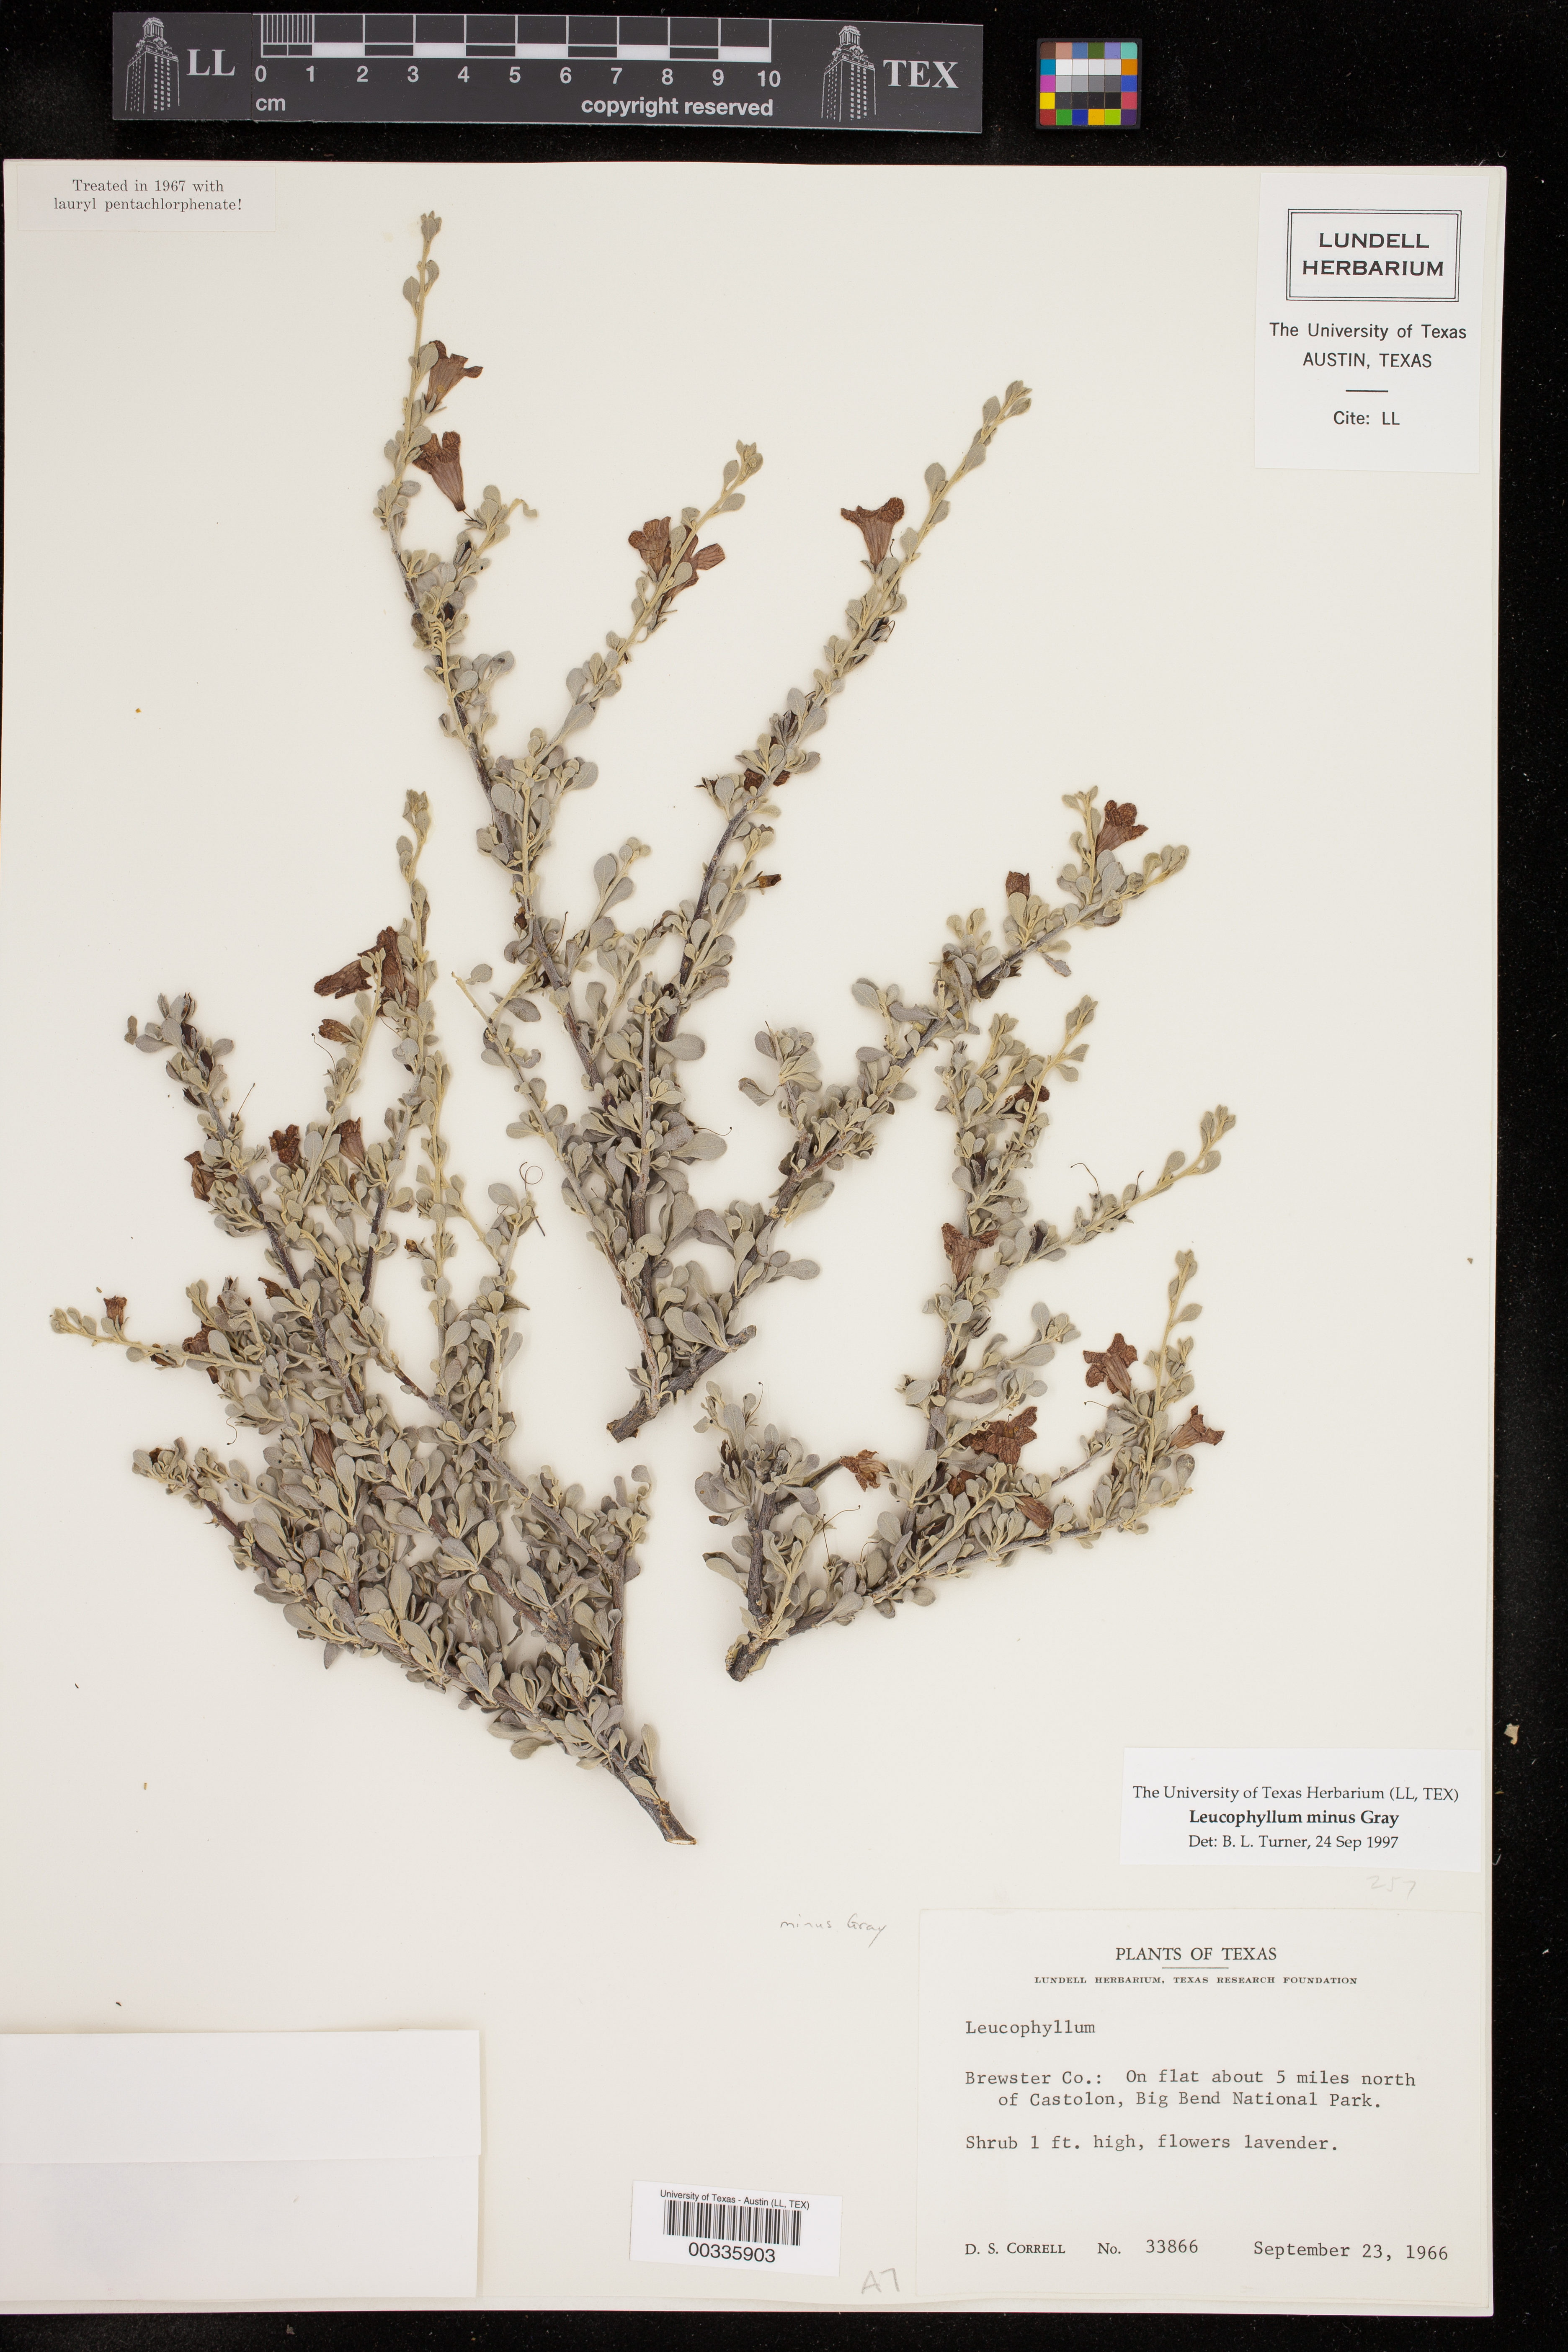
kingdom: Plantae
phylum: Tracheophyta
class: Magnoliopsida
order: Lamiales
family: Scrophulariaceae
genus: Leucophyllum
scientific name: Leucophyllum minus
